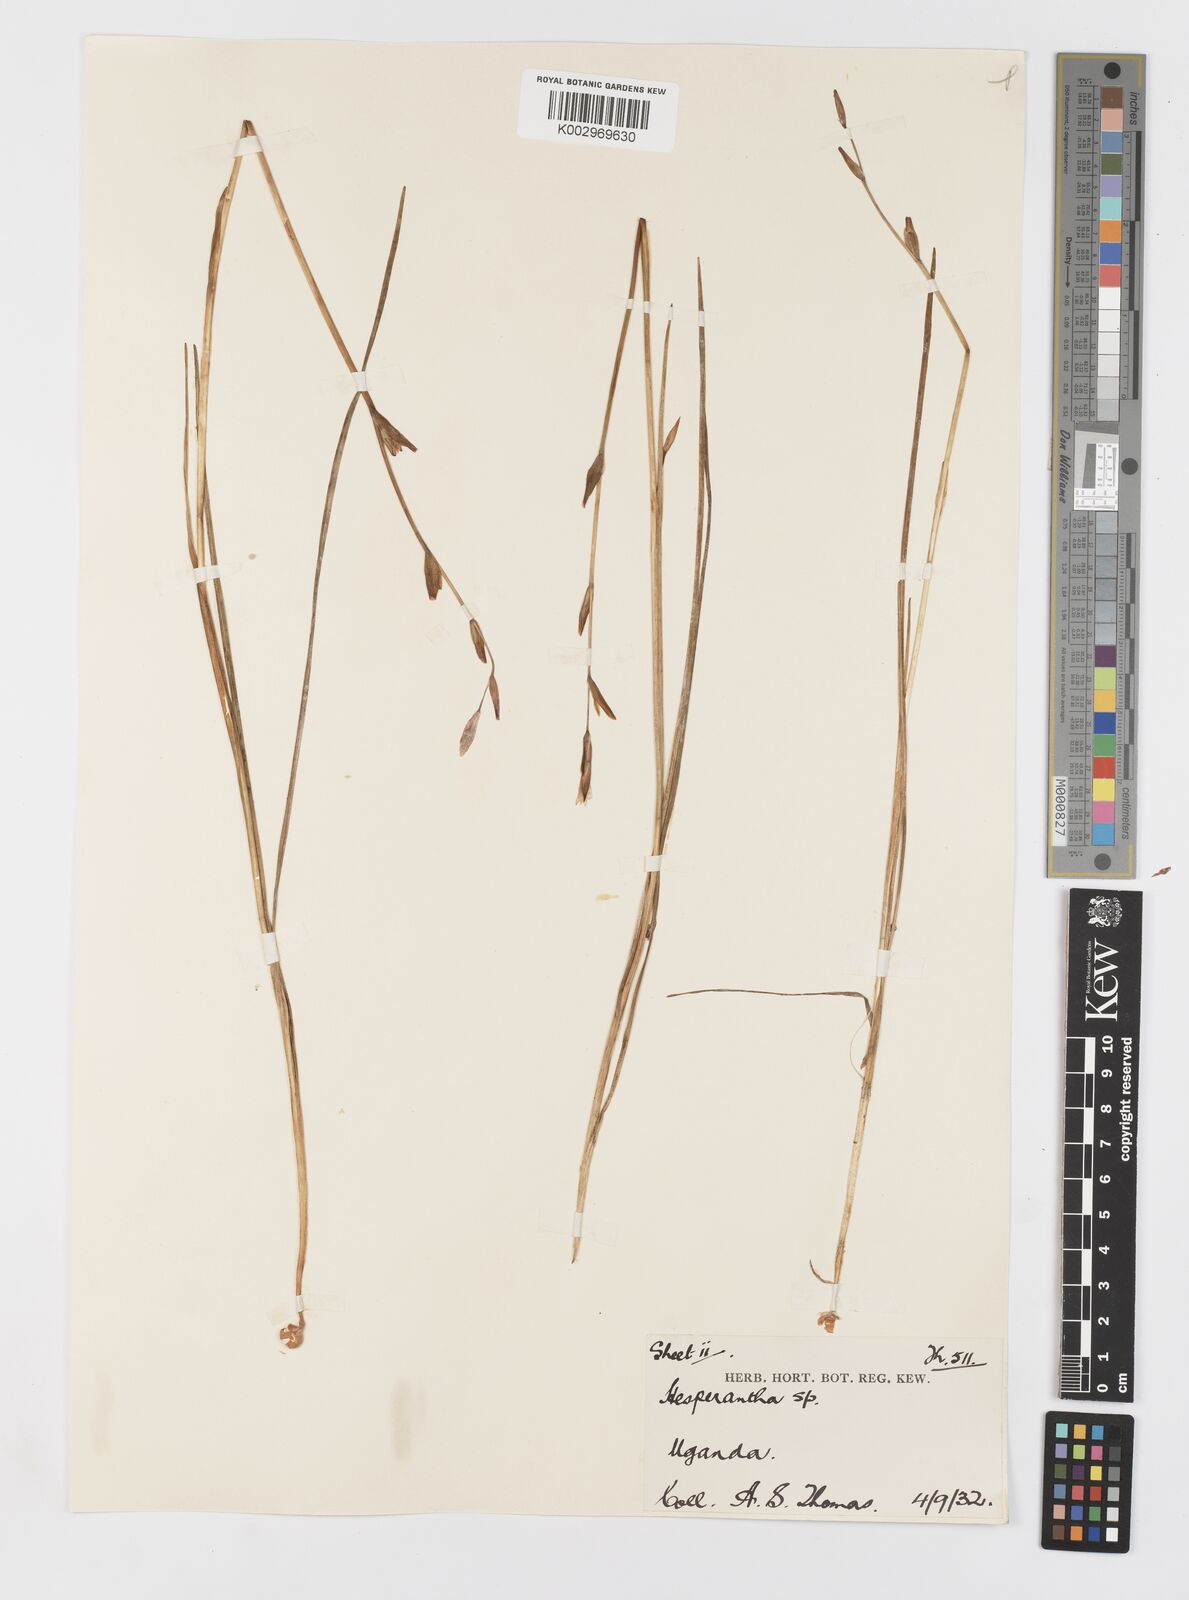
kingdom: Plantae
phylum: Tracheophyta
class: Liliopsida
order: Asparagales
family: Iridaceae
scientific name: Iridaceae
